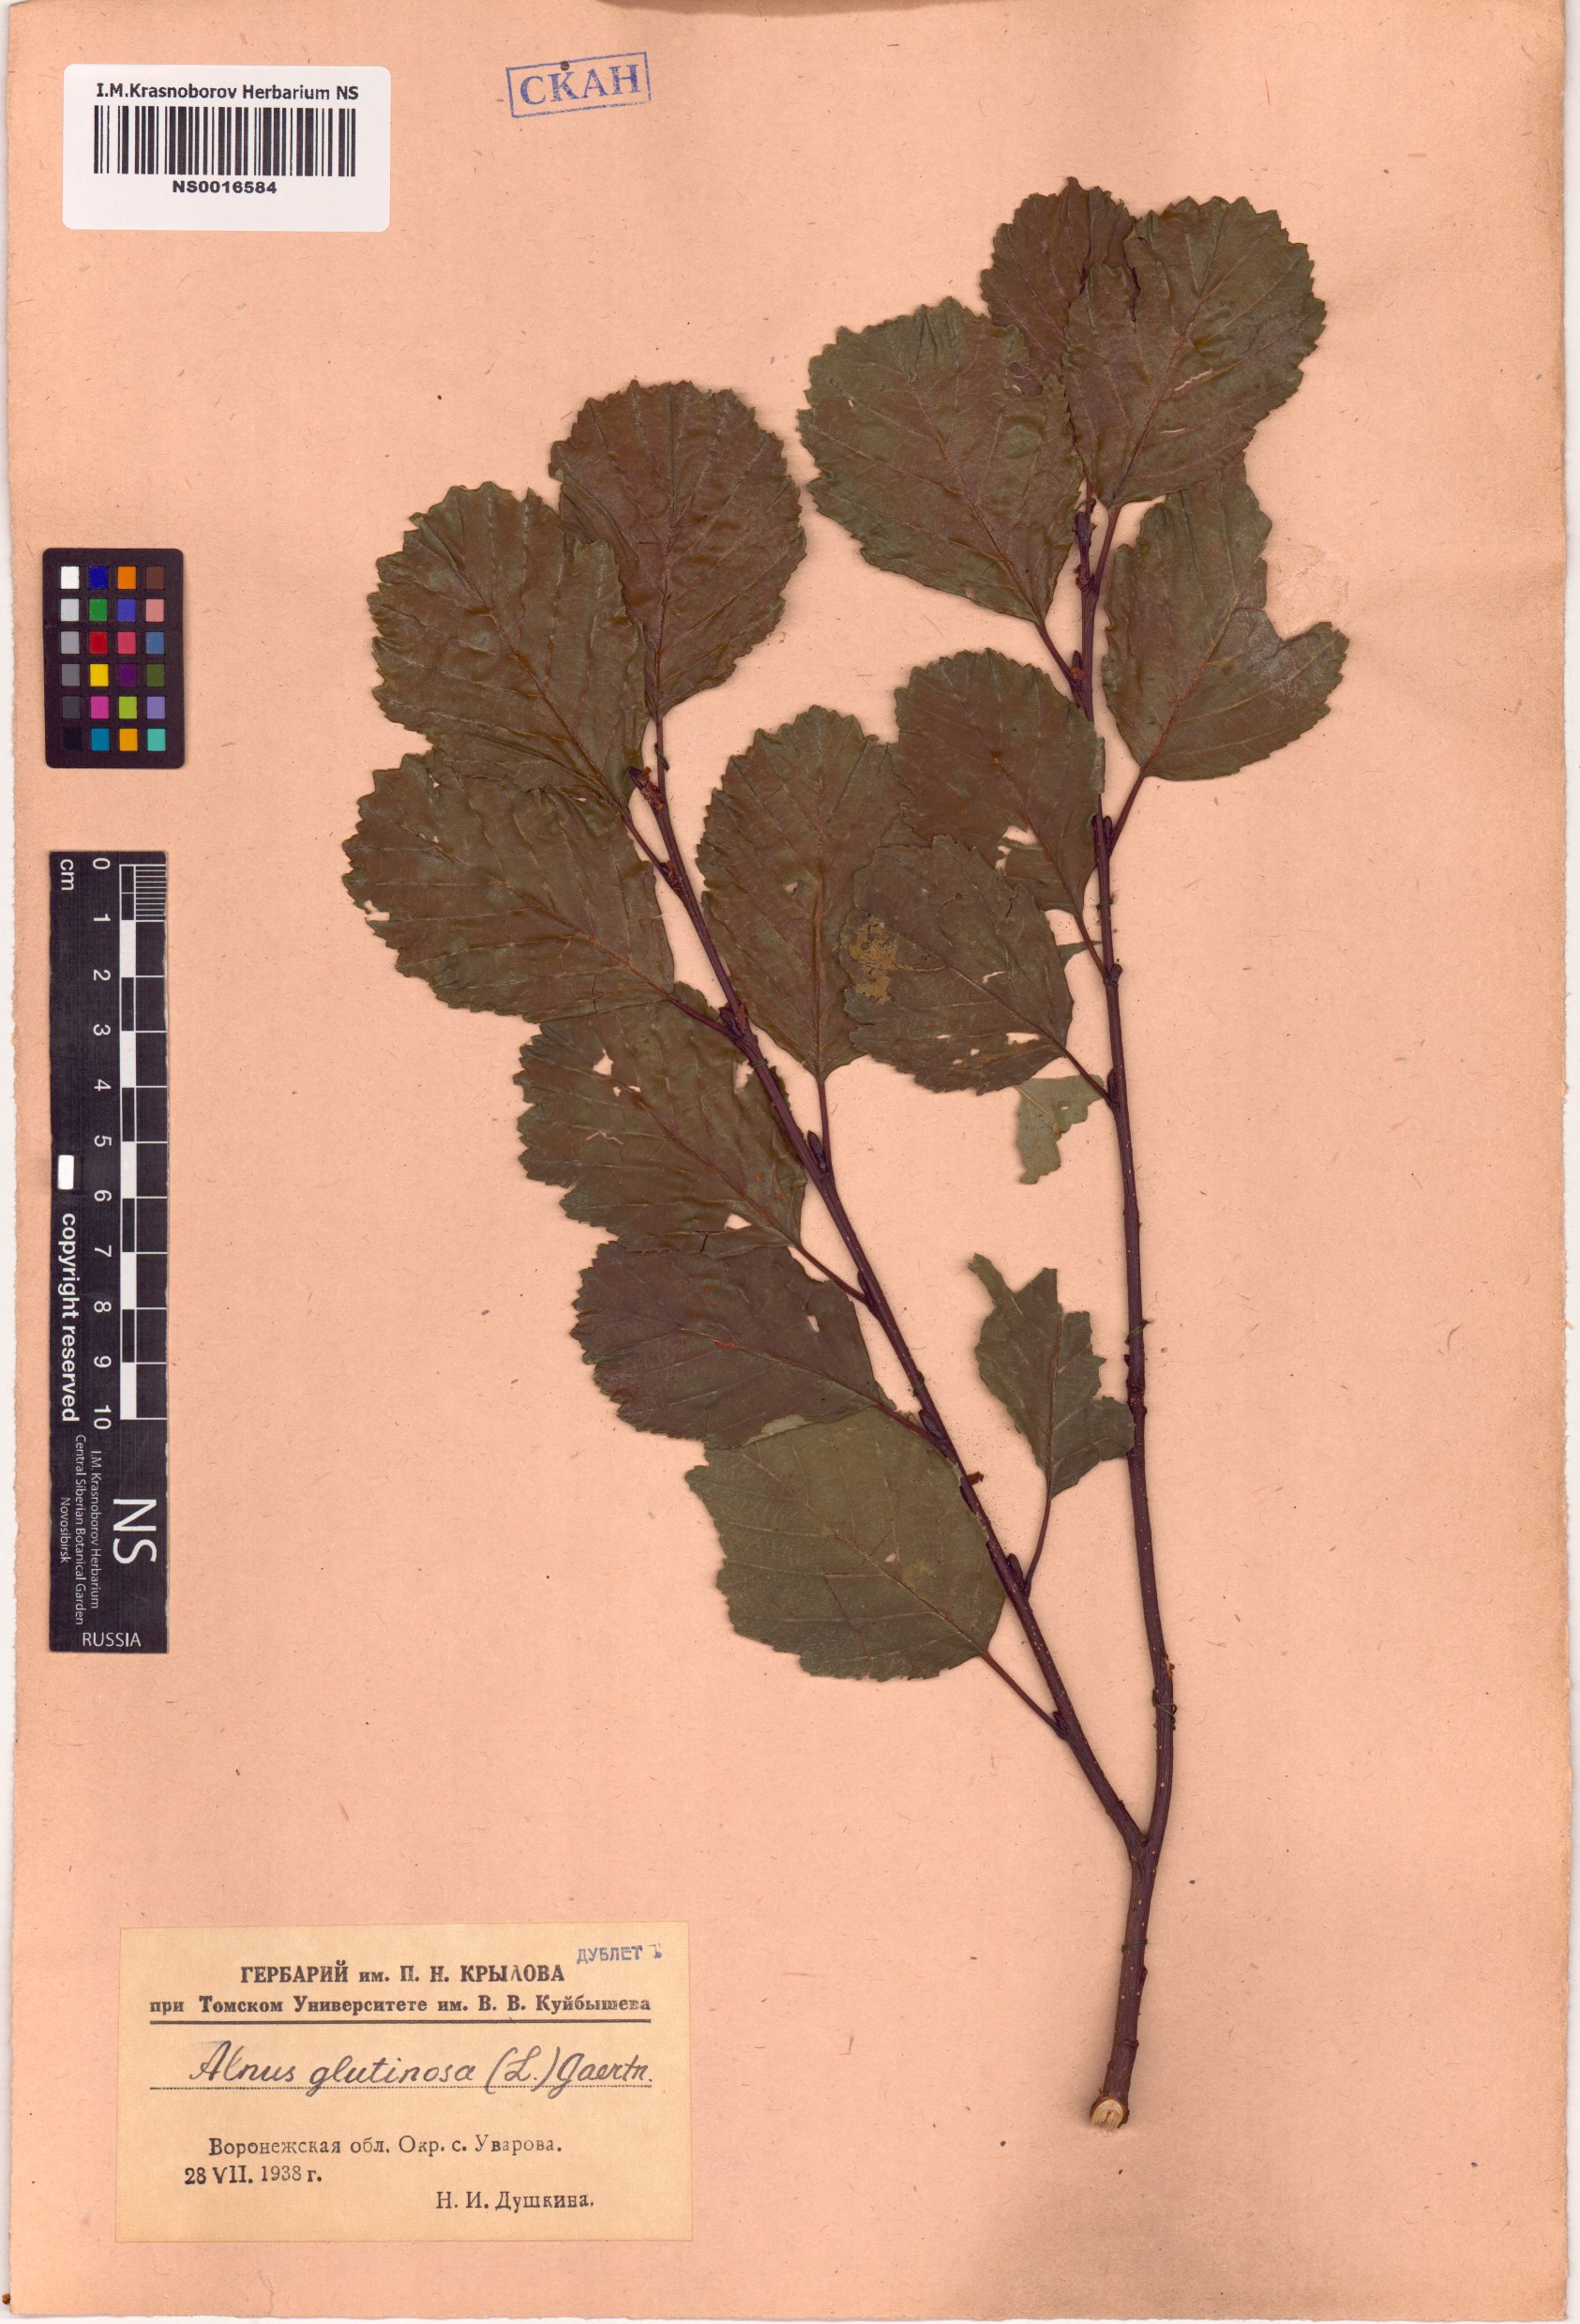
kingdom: Plantae
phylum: Tracheophyta
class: Magnoliopsida
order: Fagales
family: Betulaceae
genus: Alnus
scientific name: Alnus glutinosa
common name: Black alder
